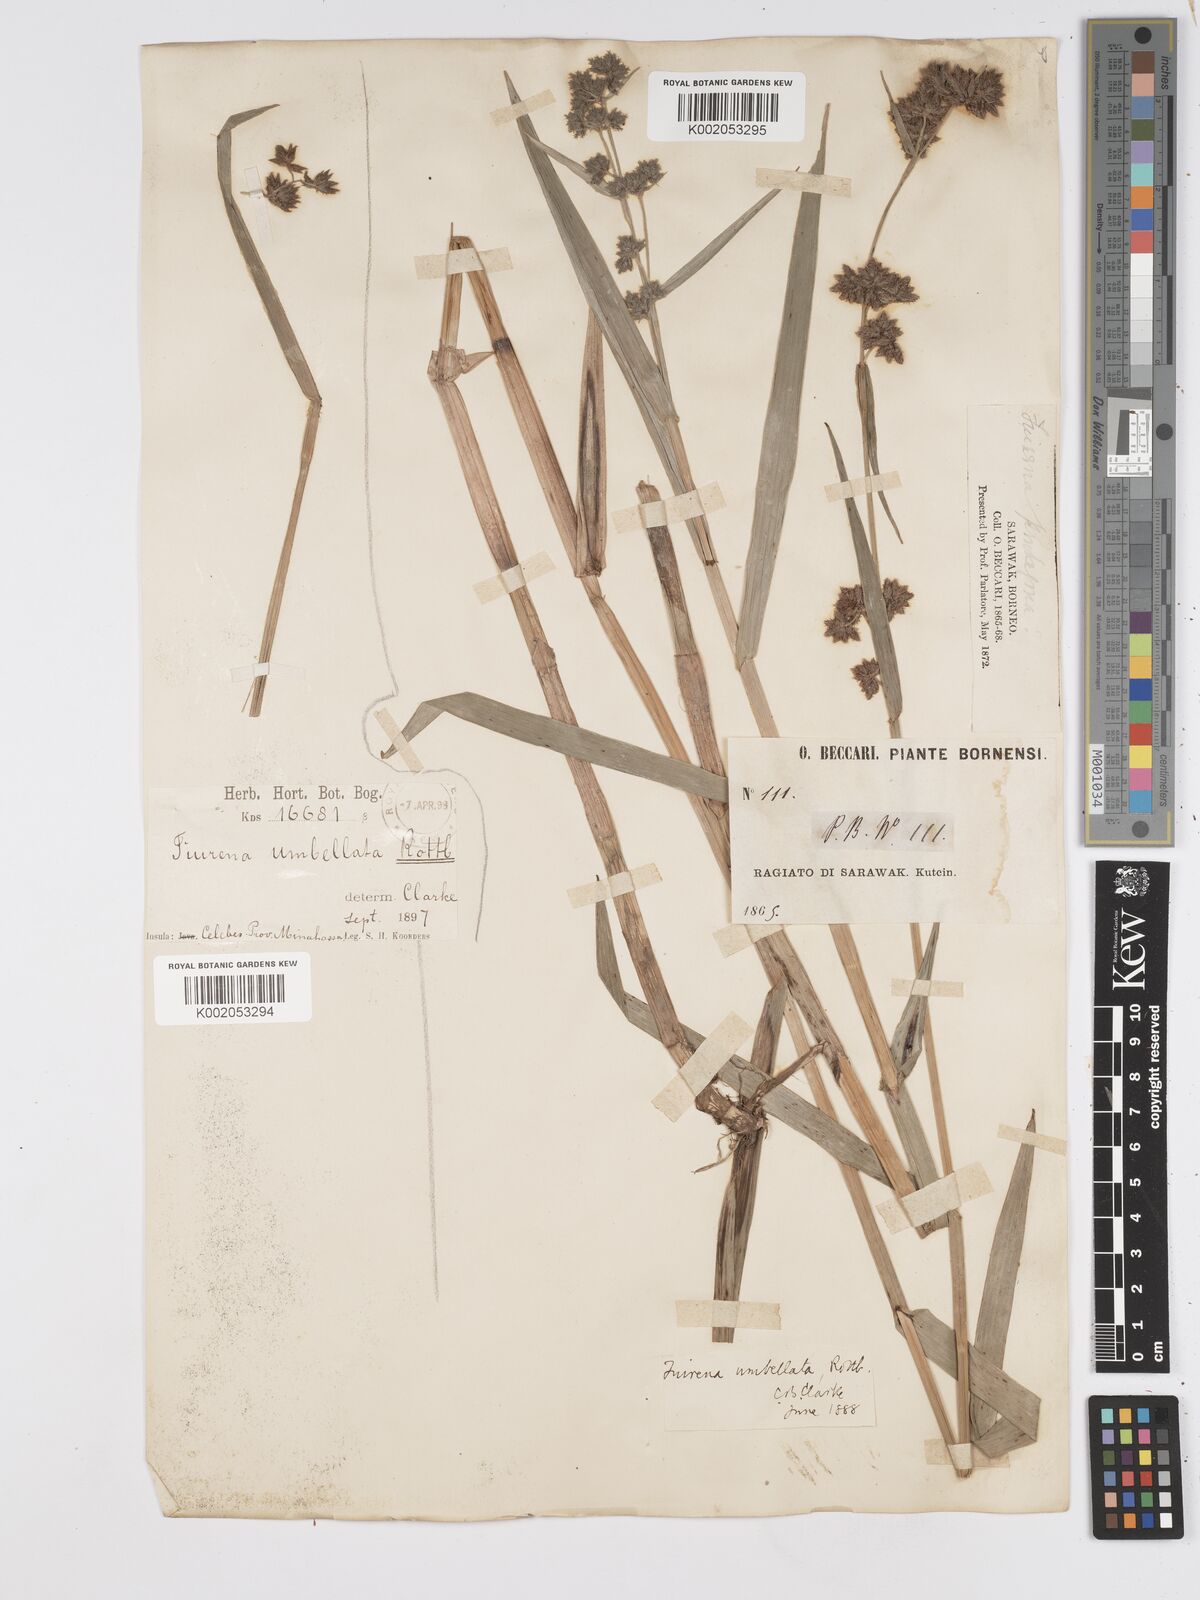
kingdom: Plantae
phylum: Tracheophyta
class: Liliopsida
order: Poales
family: Cyperaceae
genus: Fuirena
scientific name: Fuirena umbellata
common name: Yefen
